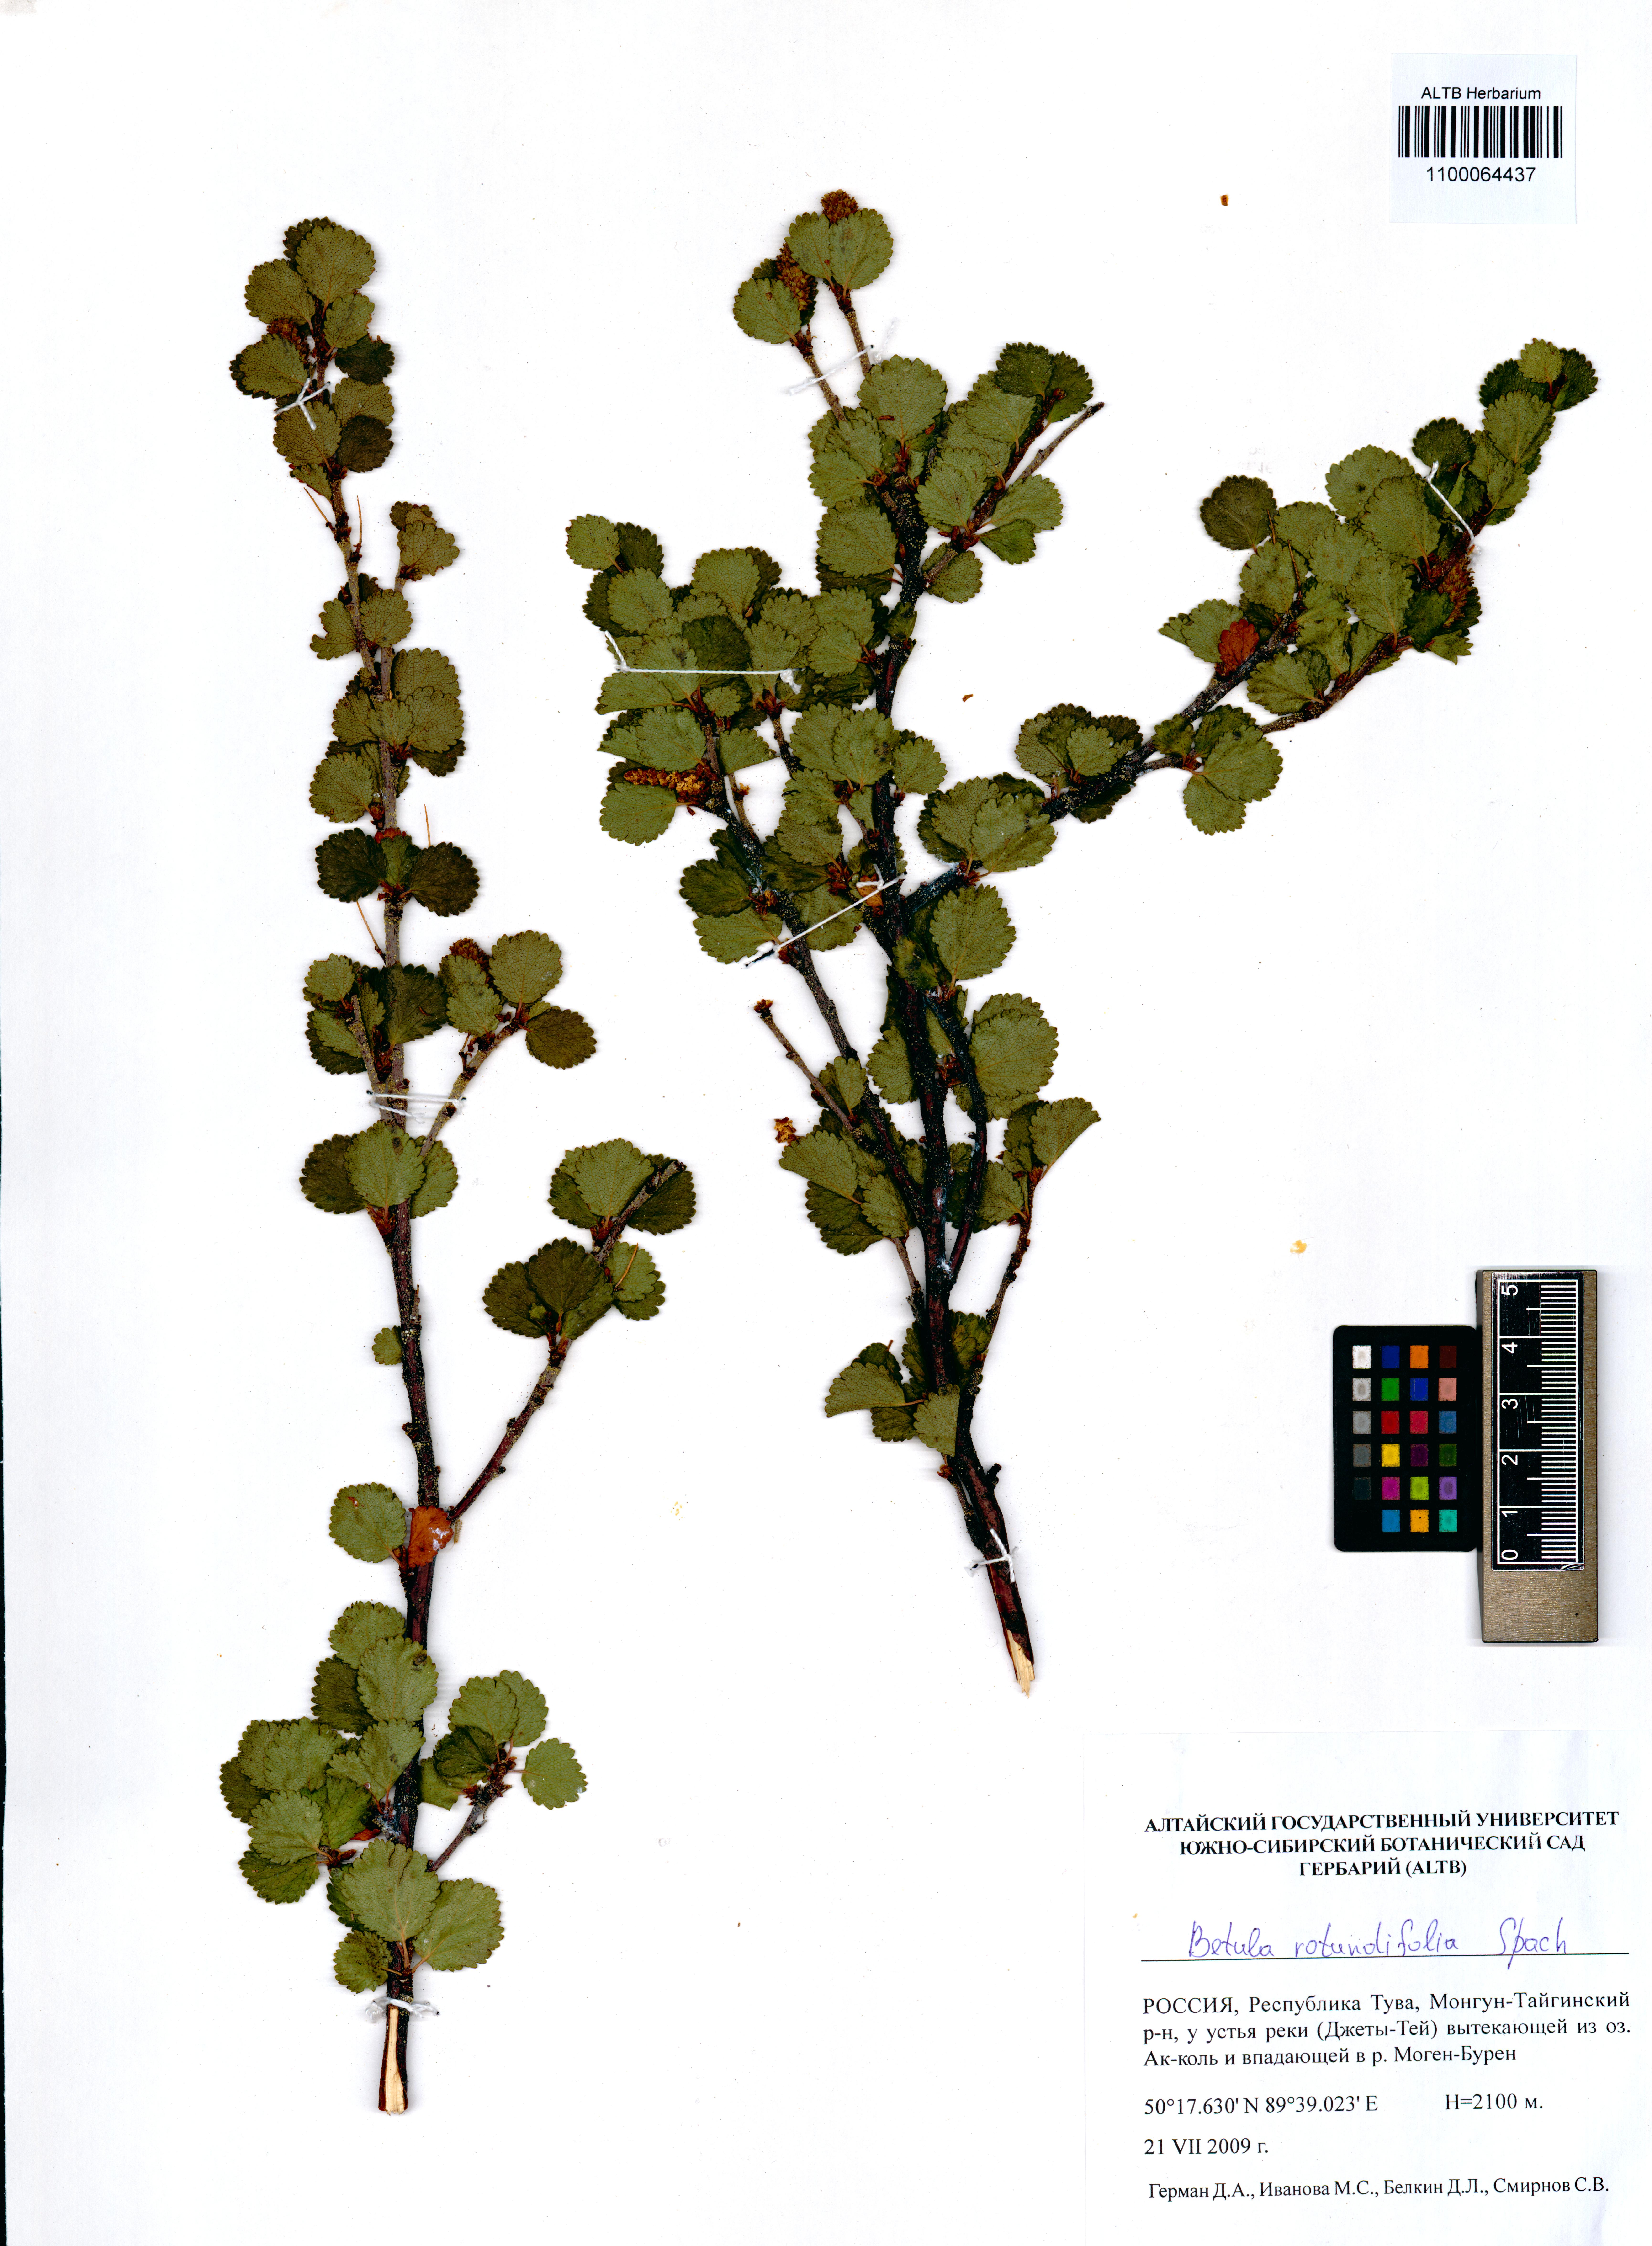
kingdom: Plantae
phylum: Tracheophyta
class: Magnoliopsida
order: Fagales
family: Betulaceae
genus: Betula
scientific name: Betula glandulosa
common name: Dwarf birch
